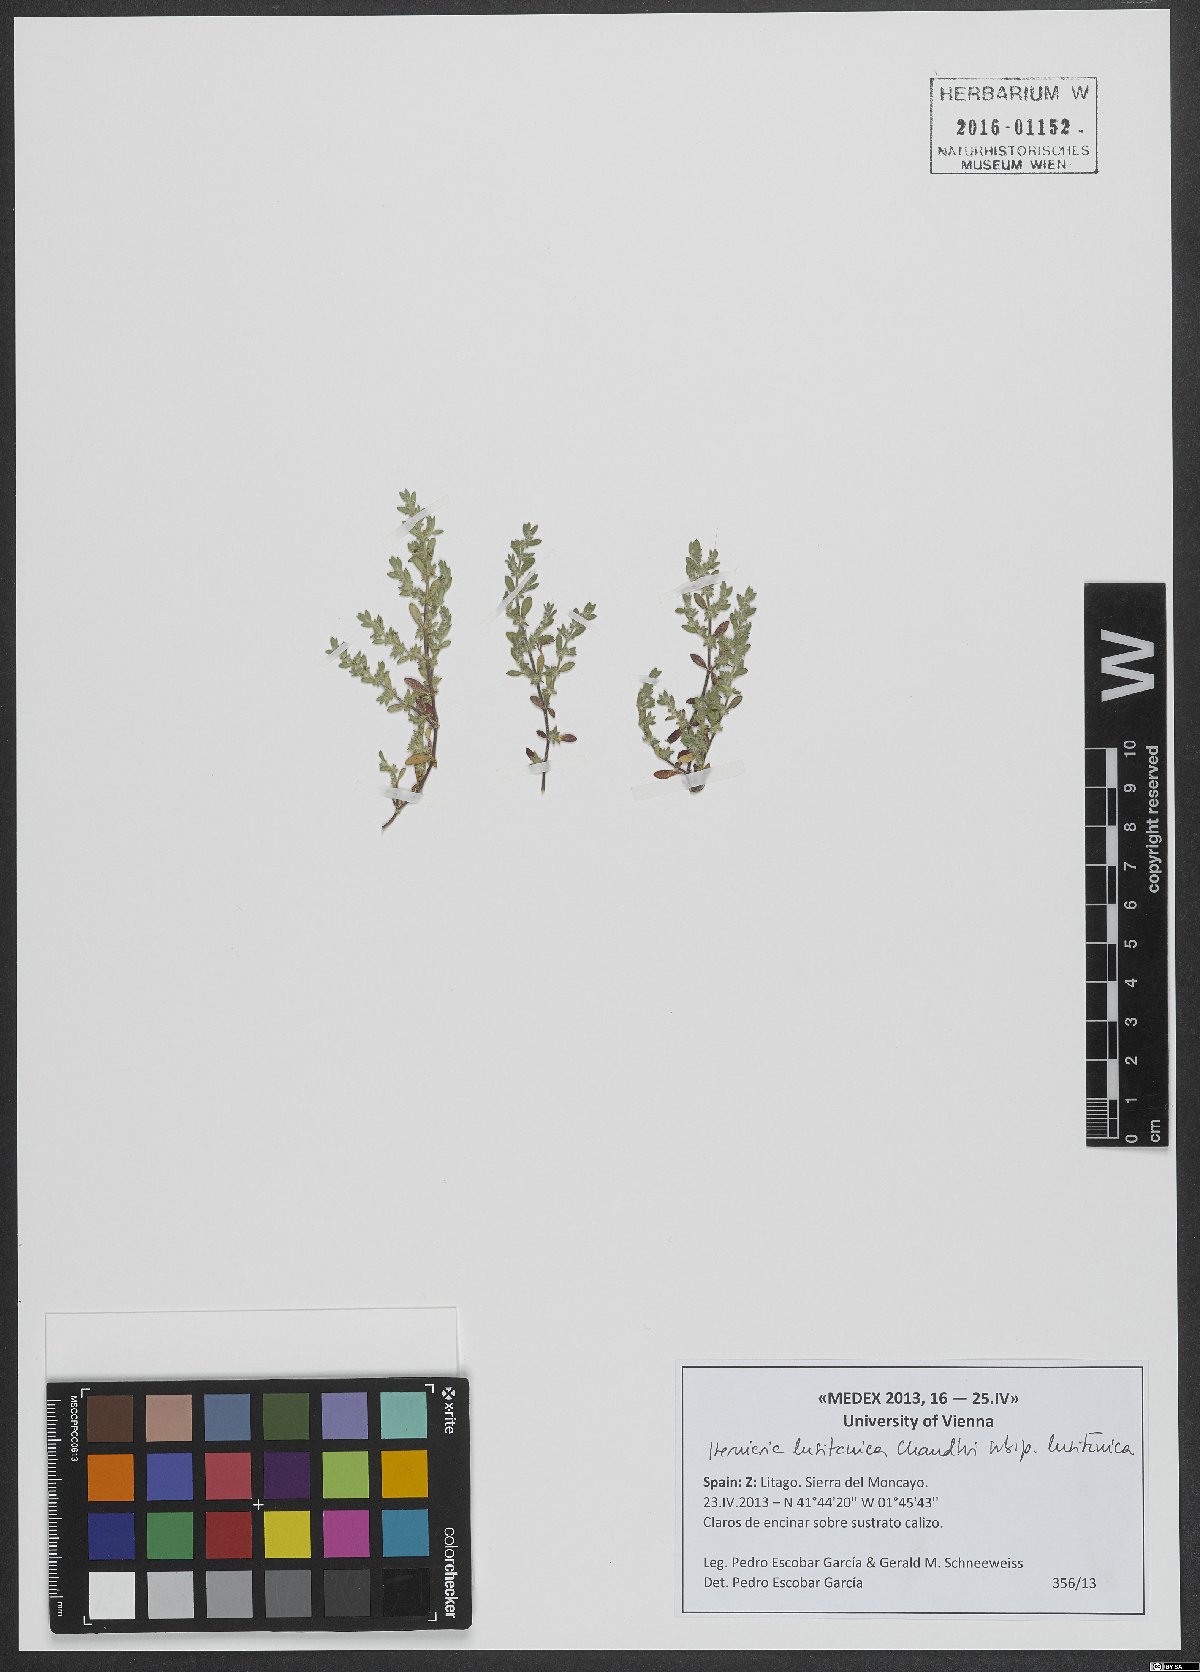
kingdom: Plantae
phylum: Tracheophyta
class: Magnoliopsida
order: Caryophyllales
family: Caryophyllaceae
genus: Herniaria
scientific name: Herniaria lusitanica
